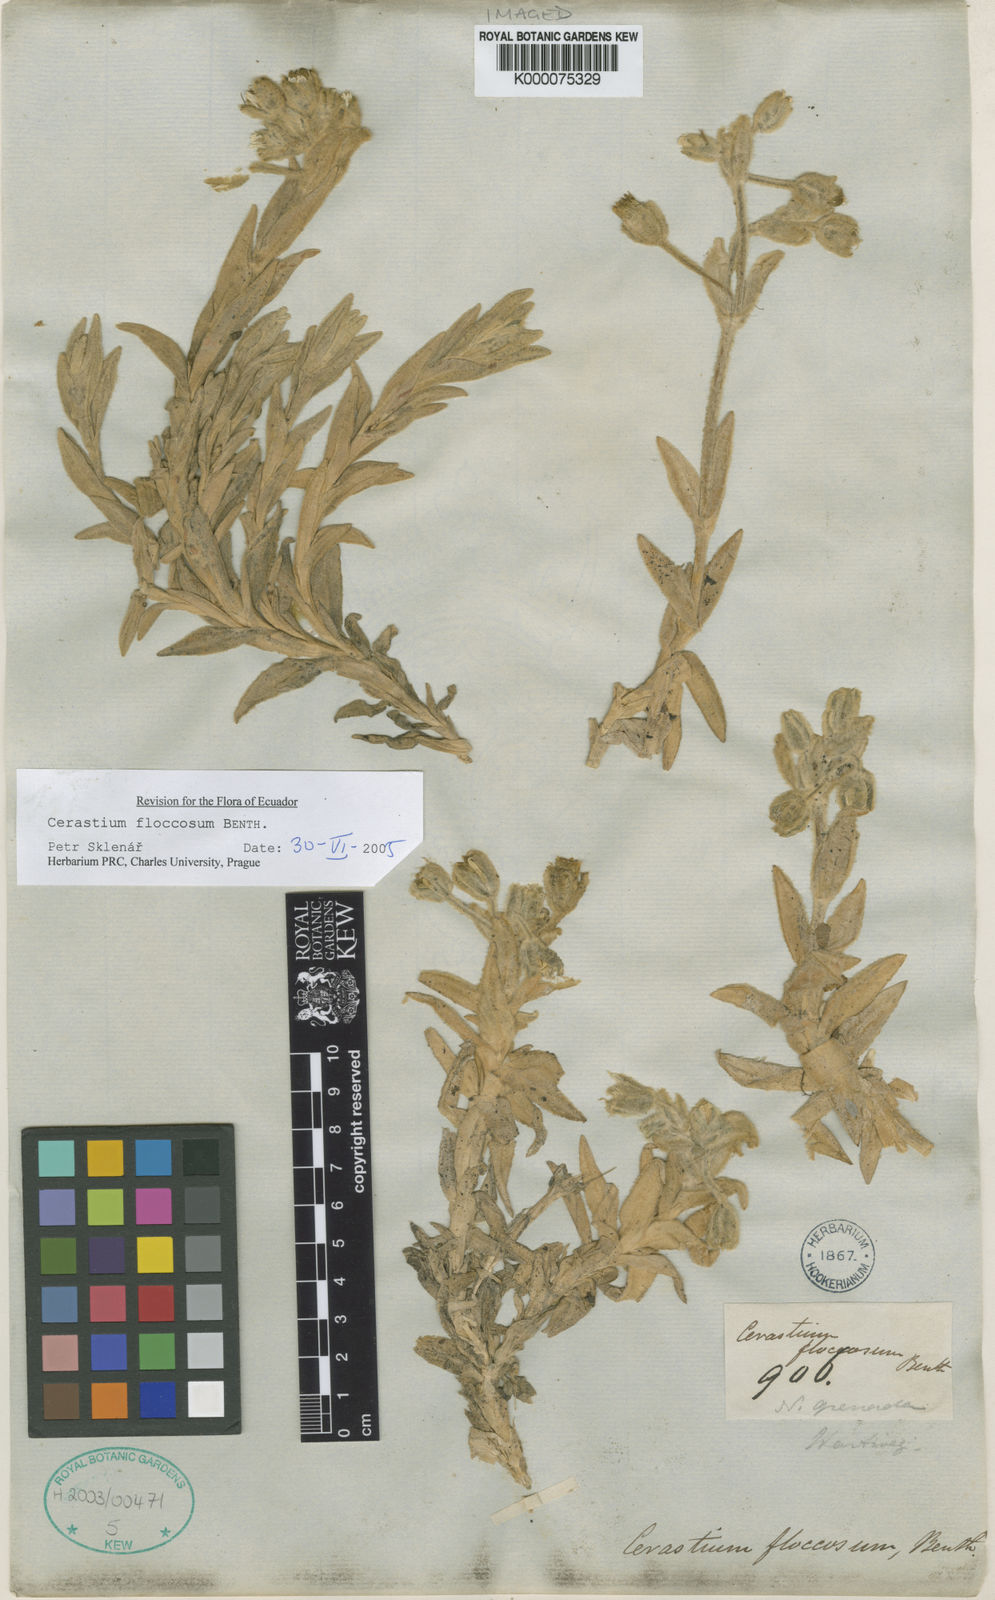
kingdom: Plantae
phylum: Tracheophyta
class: Magnoliopsida
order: Caryophyllales
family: Caryophyllaceae
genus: Cerastium
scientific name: Cerastium floccosum
